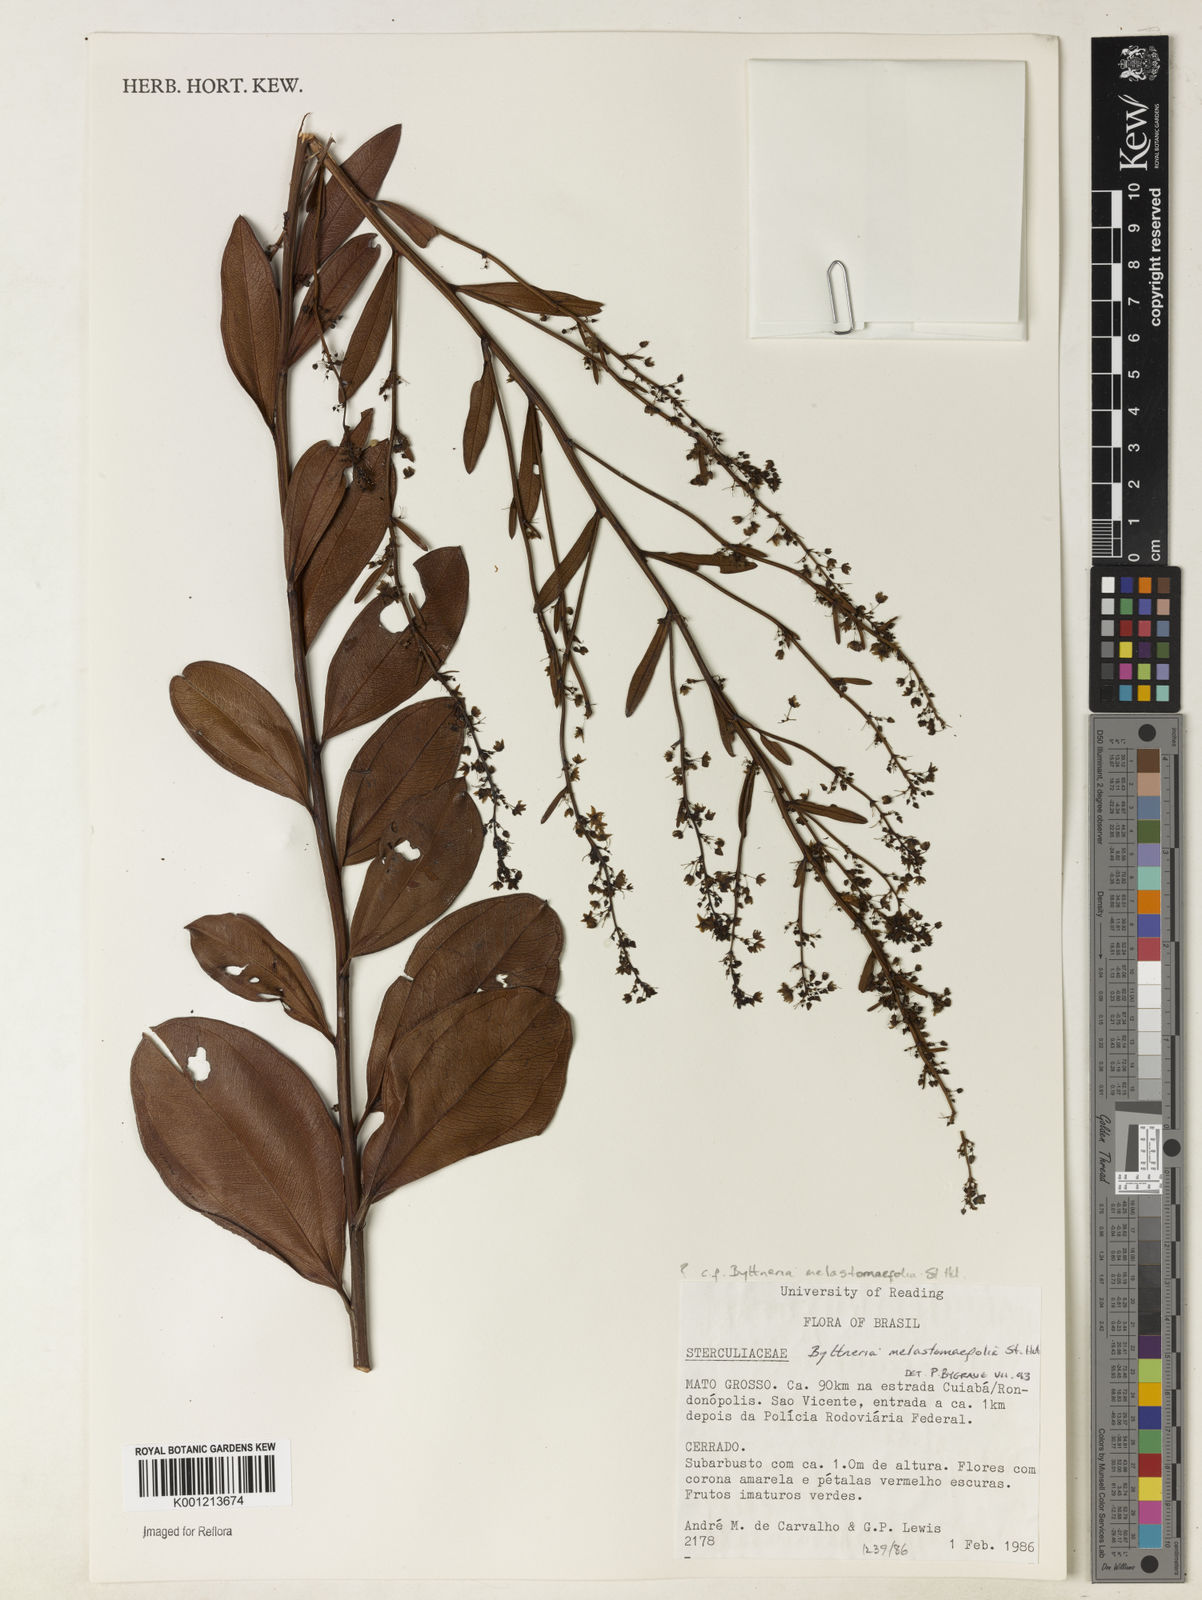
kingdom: Plantae
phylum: Tracheophyta
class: Magnoliopsida
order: Malvales
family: Malvaceae
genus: Byttneria
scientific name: Byttneria melastomifolia
